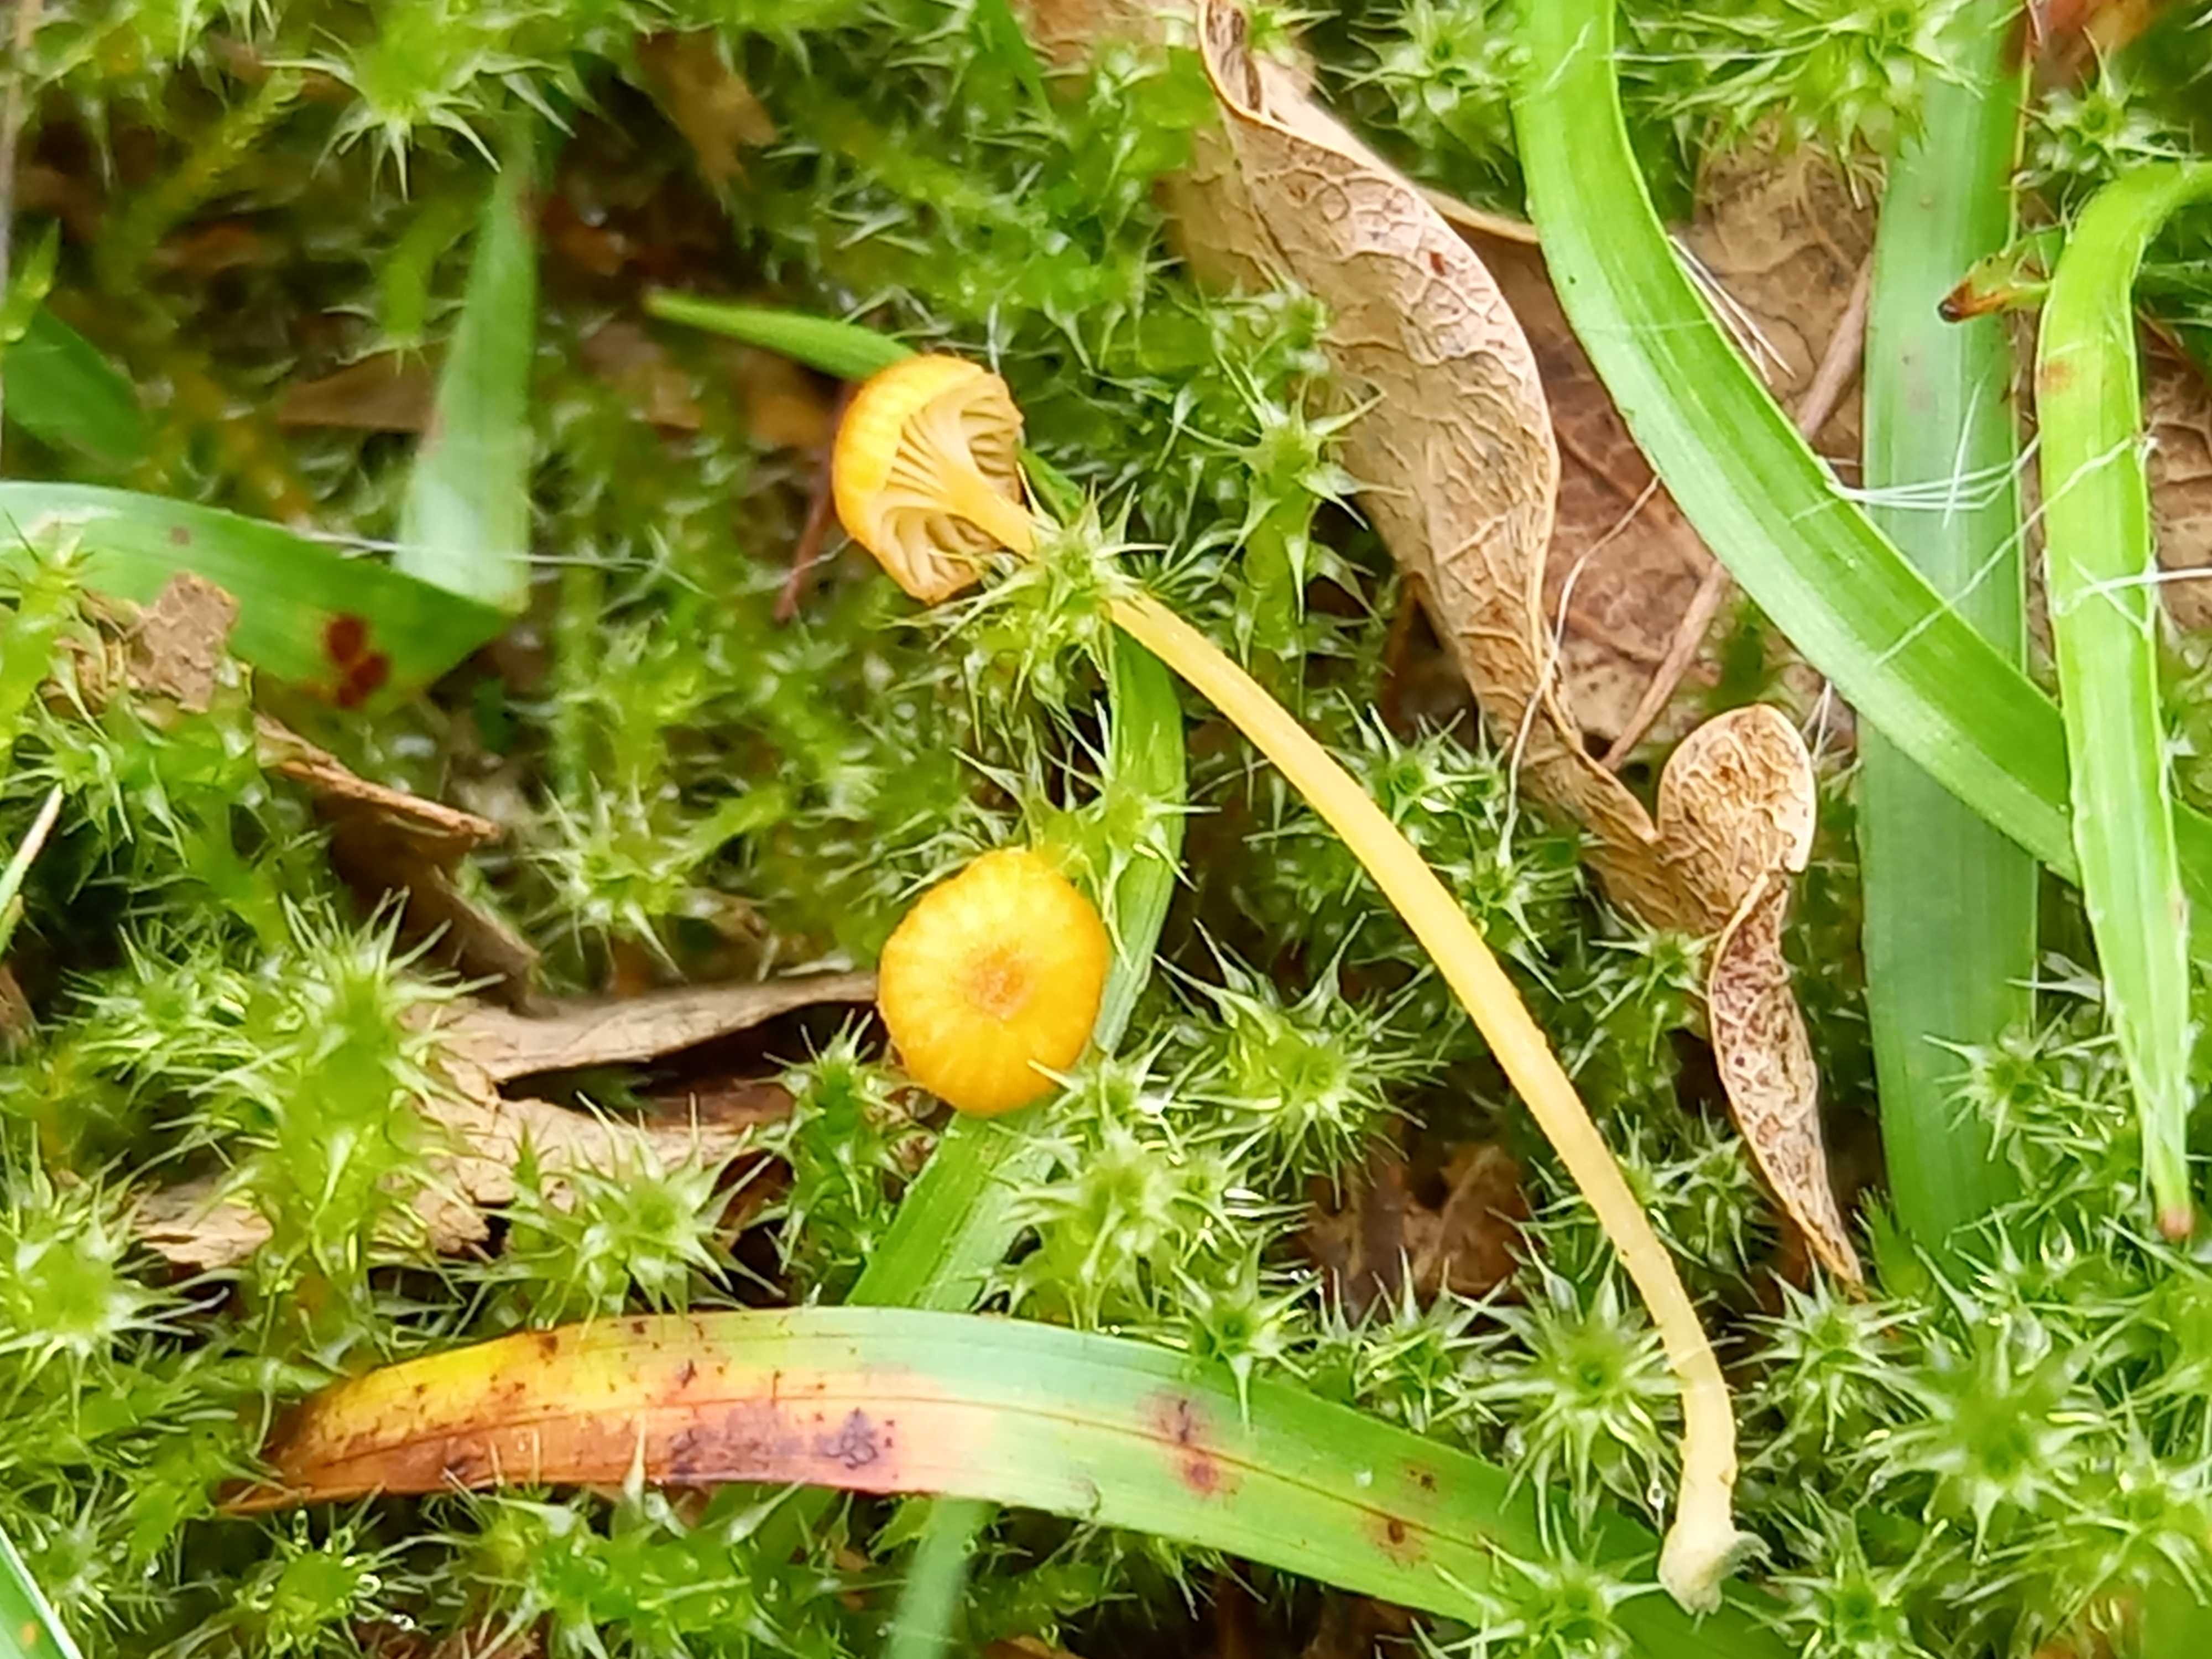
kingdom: Fungi
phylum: Basidiomycota
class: Agaricomycetes
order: Hymenochaetales
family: Rickenellaceae
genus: Rickenella
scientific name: Rickenella fibula
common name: orange mosnavlehat
